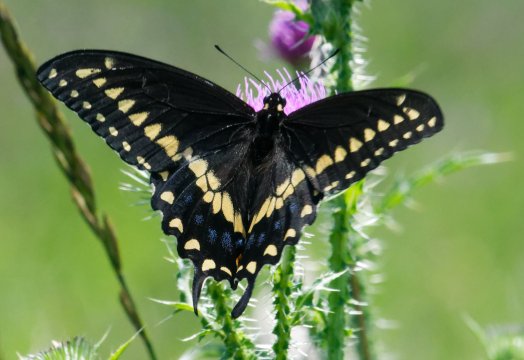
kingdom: Animalia
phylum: Arthropoda
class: Insecta
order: Lepidoptera
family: Papilionidae
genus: Papilio
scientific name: Papilio polyxenes
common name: Black Swallowtail
